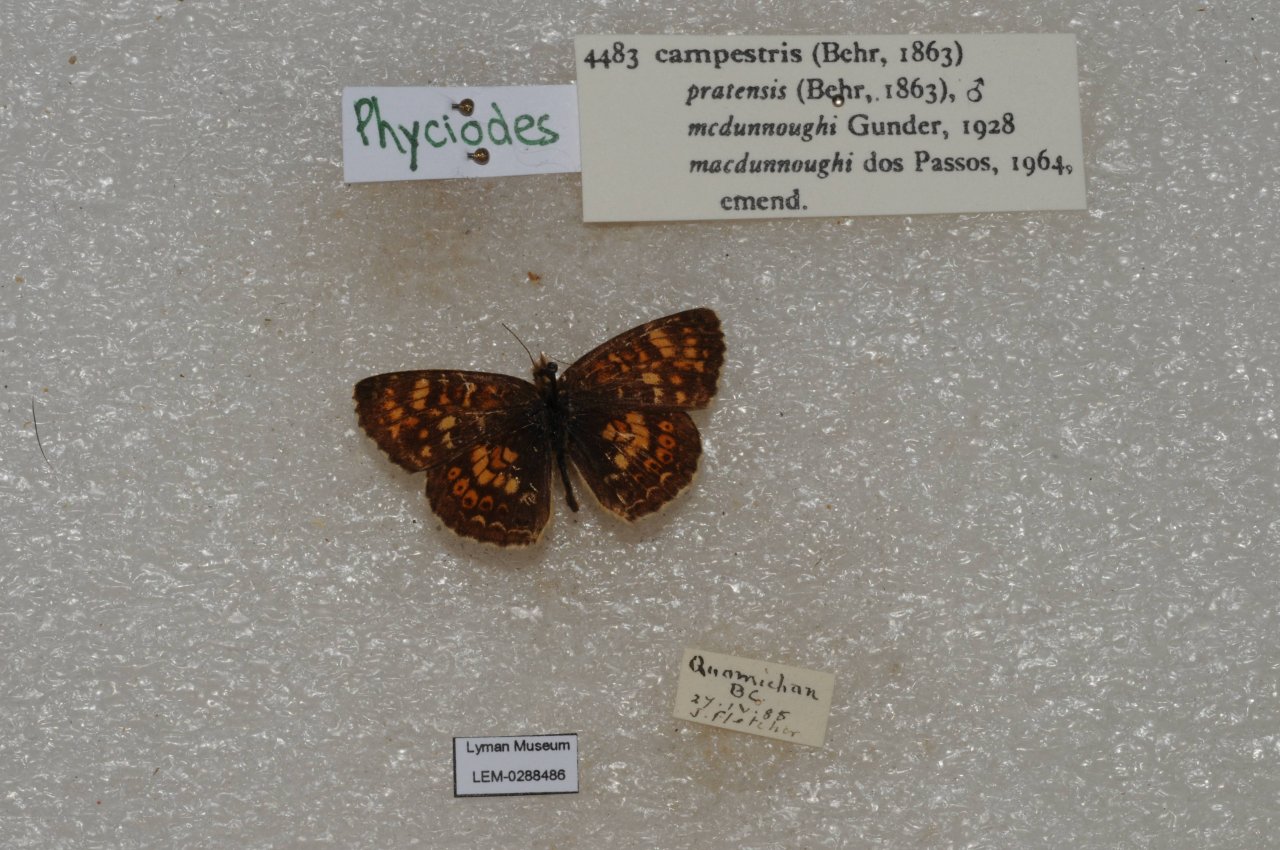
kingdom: Animalia
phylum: Arthropoda
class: Insecta
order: Lepidoptera
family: Nymphalidae
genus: Phyciodes
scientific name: Phyciodes tharos
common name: Field Crescent
